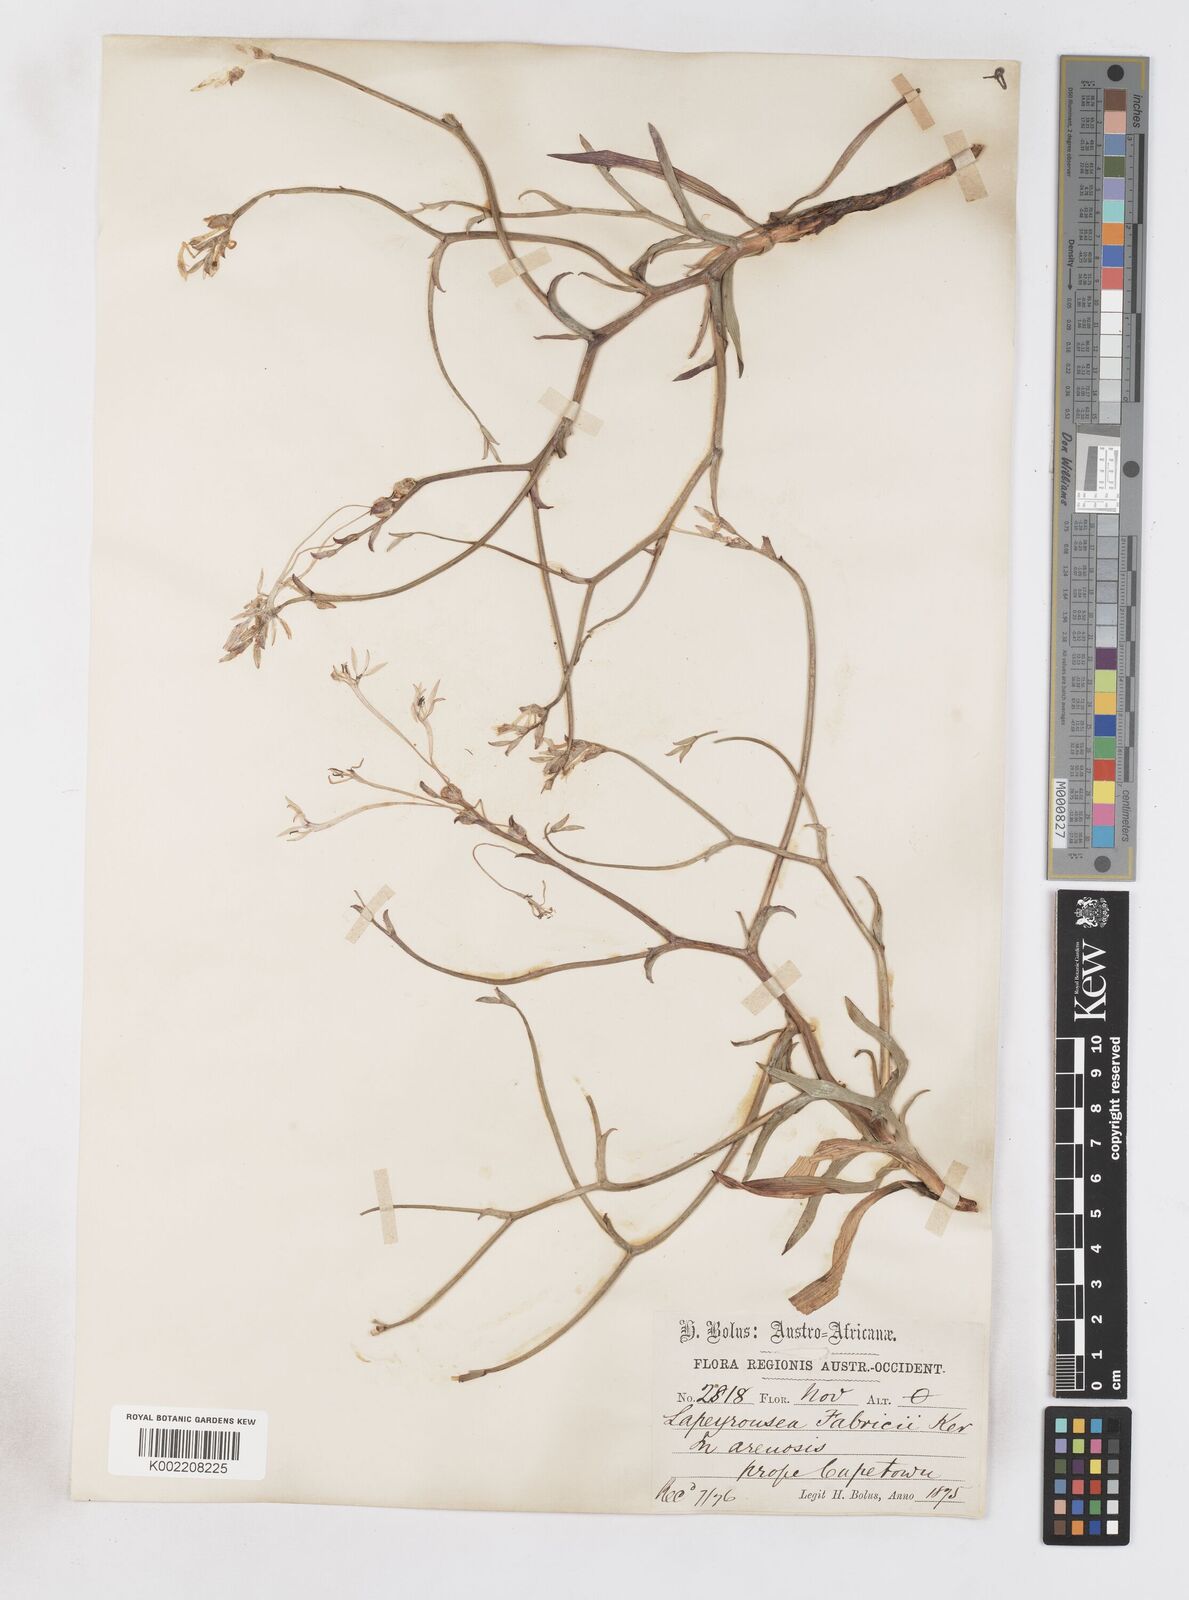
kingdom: Plantae
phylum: Tracheophyta
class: Liliopsida
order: Asparagales
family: Iridaceae
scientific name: Iridaceae
